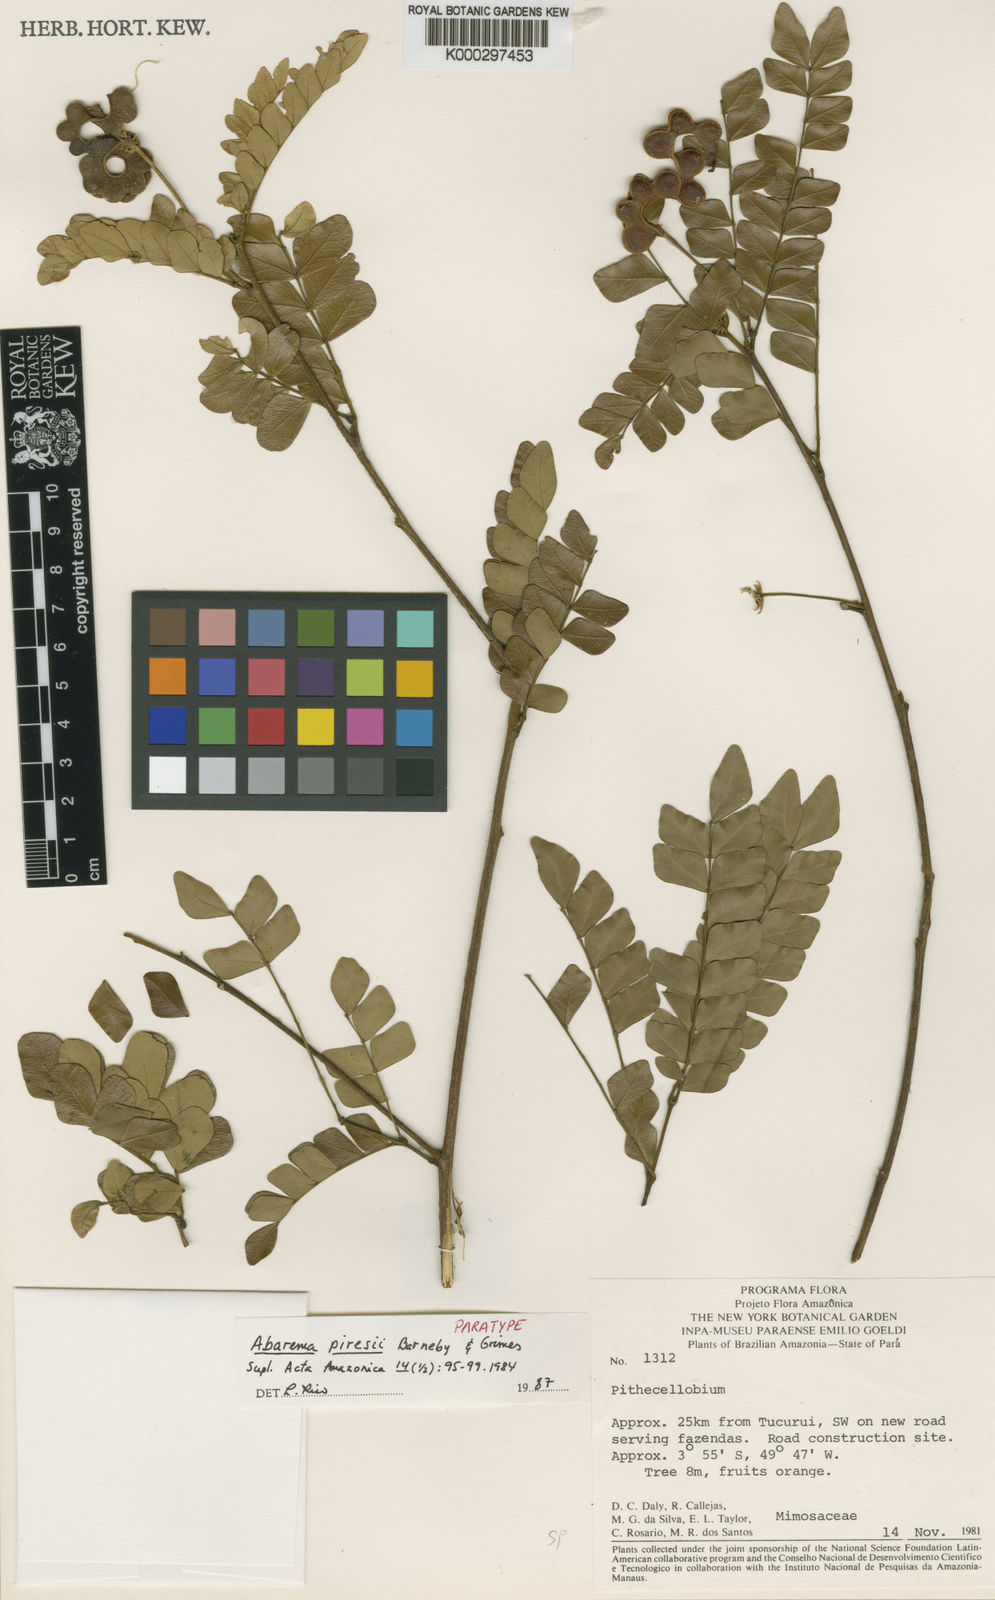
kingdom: Plantae
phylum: Tracheophyta
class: Magnoliopsida
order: Fabales
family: Fabaceae
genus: Jupunba
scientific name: Jupunba piresii
